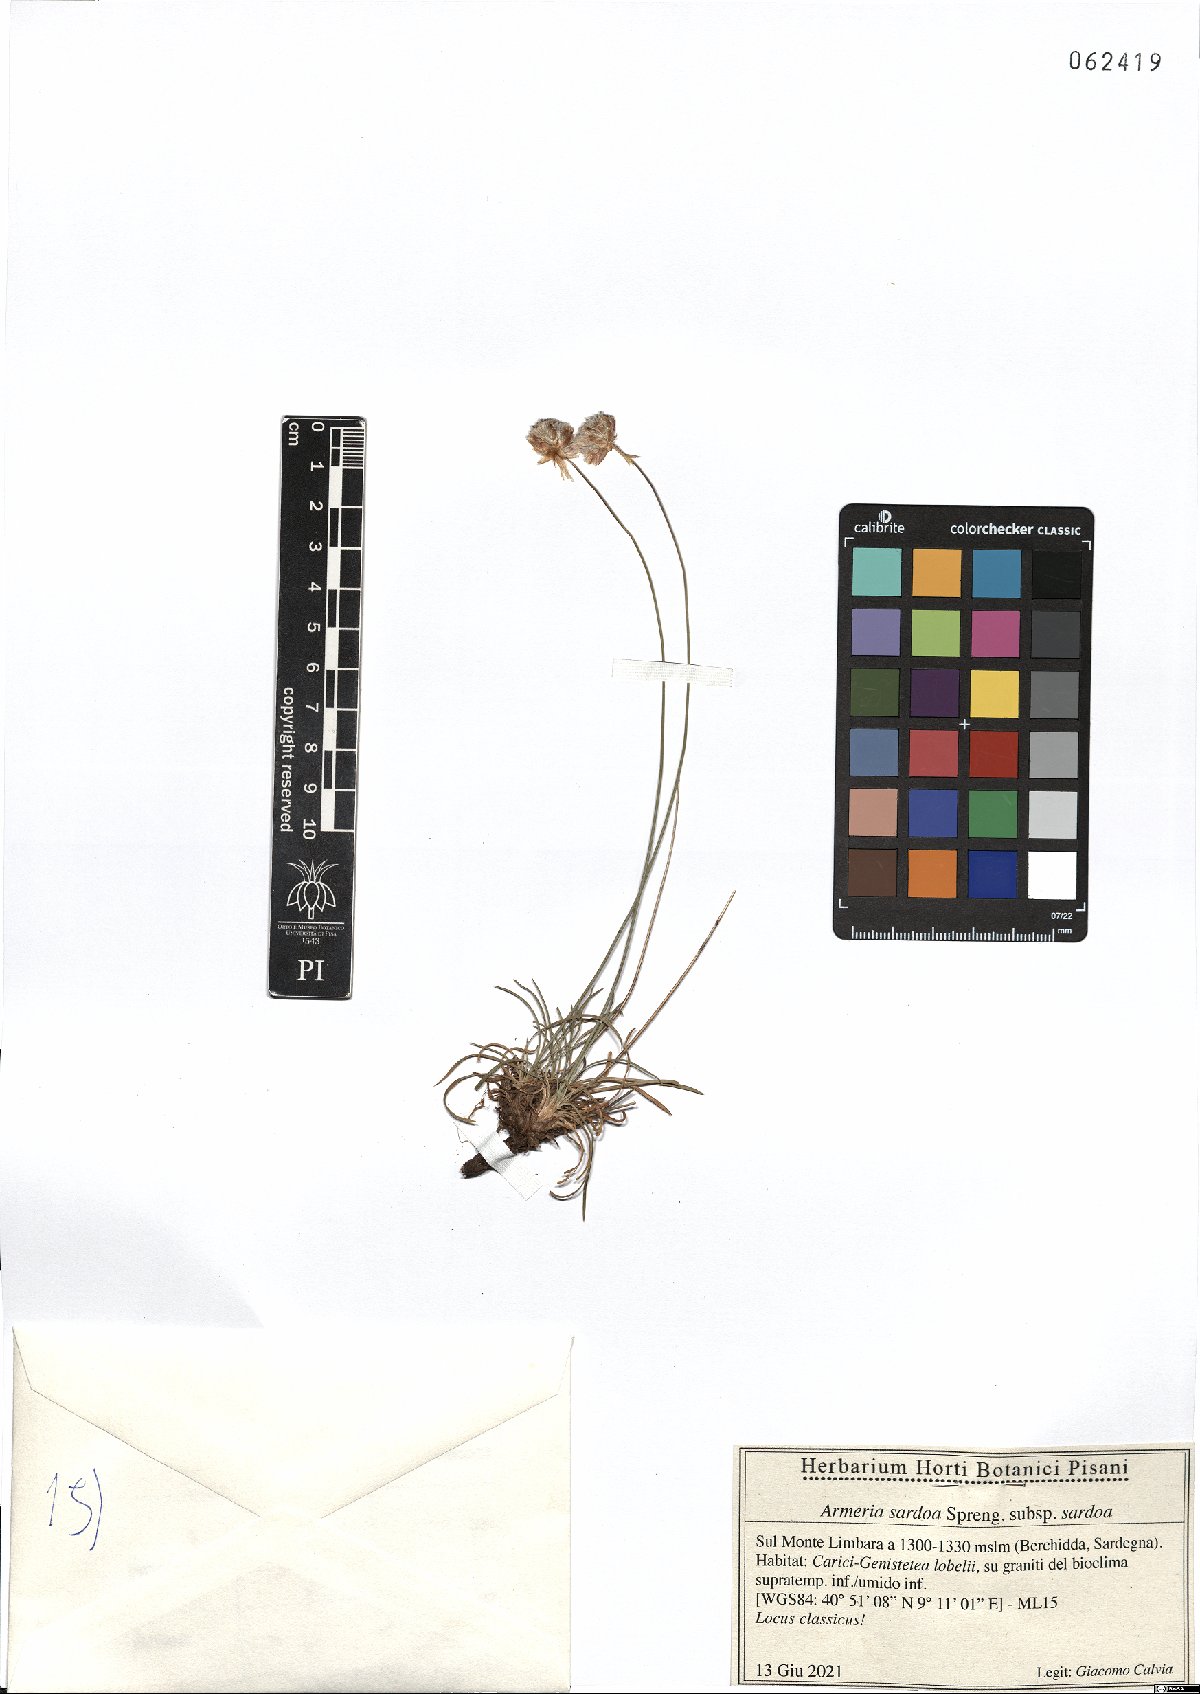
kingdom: Plantae
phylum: Tracheophyta
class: Magnoliopsida
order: Caryophyllales
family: Plumbaginaceae
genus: Armeria
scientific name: Armeria sardoa
